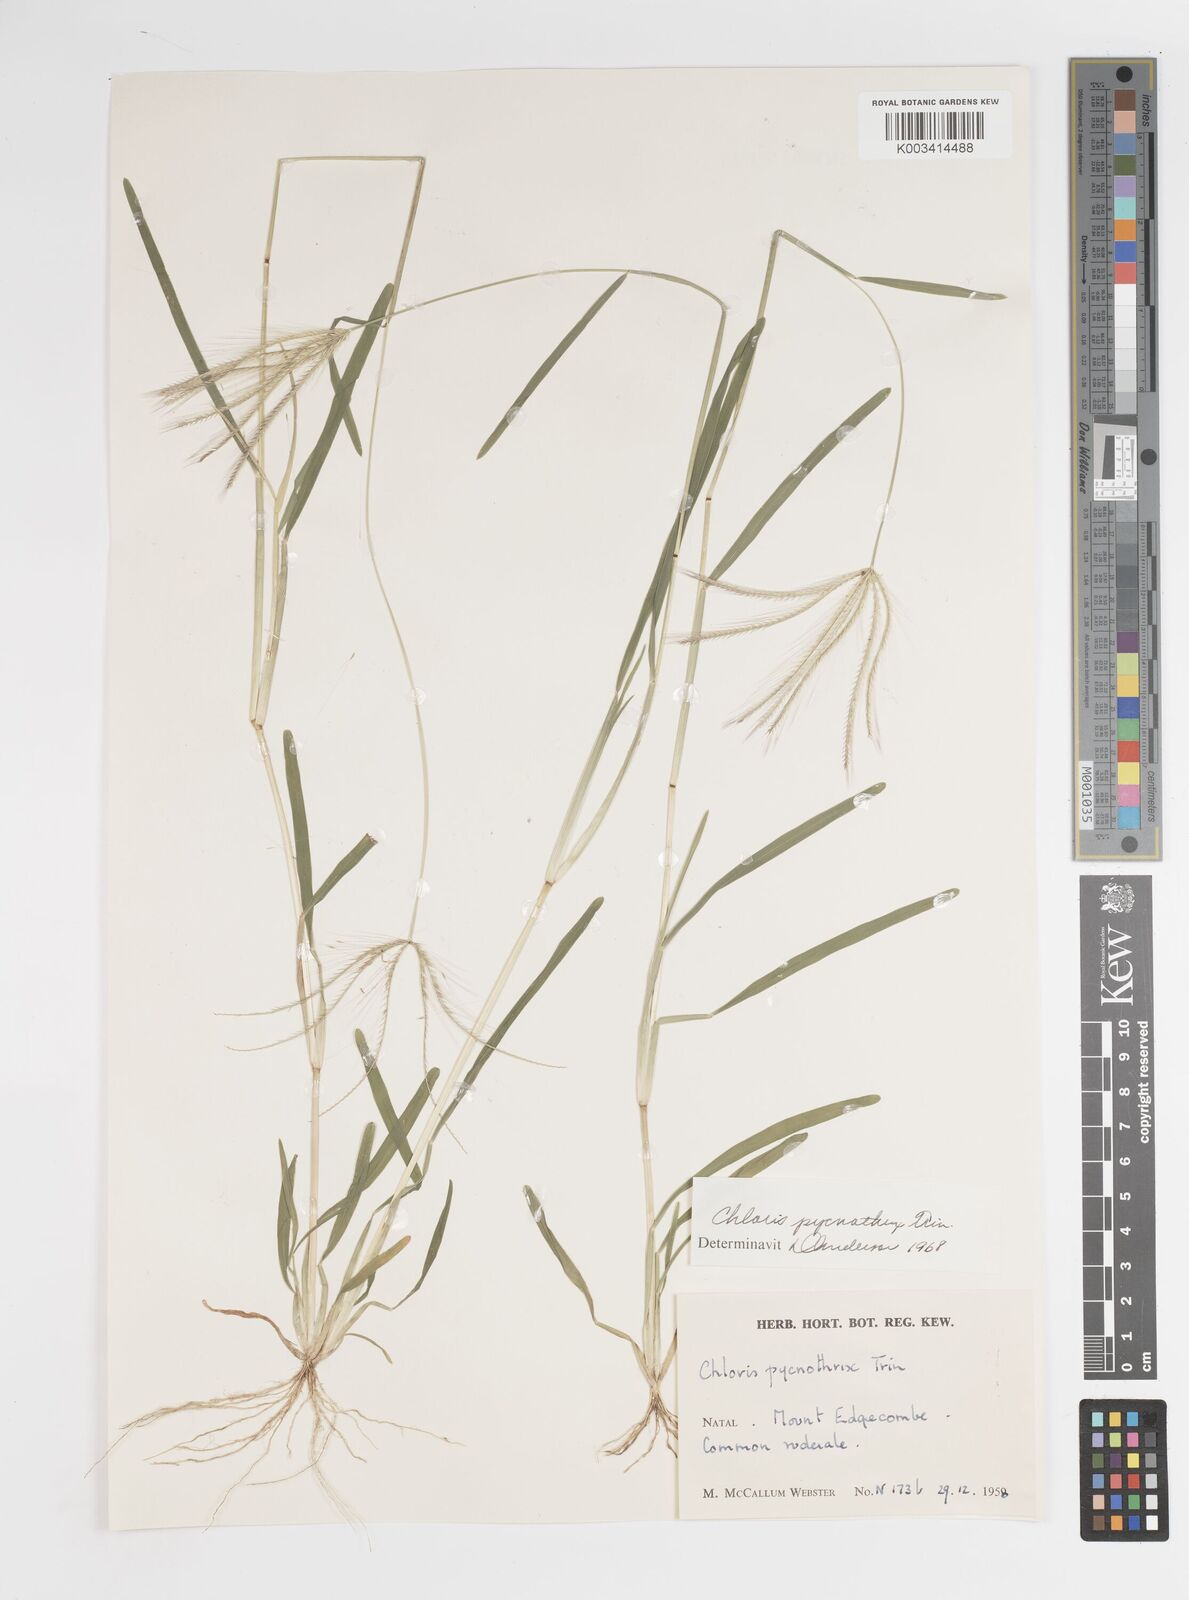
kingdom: Plantae
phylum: Tracheophyta
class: Liliopsida
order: Poales
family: Poaceae
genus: Chloris
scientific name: Chloris pycnothrix
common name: Spiderweb chloris
